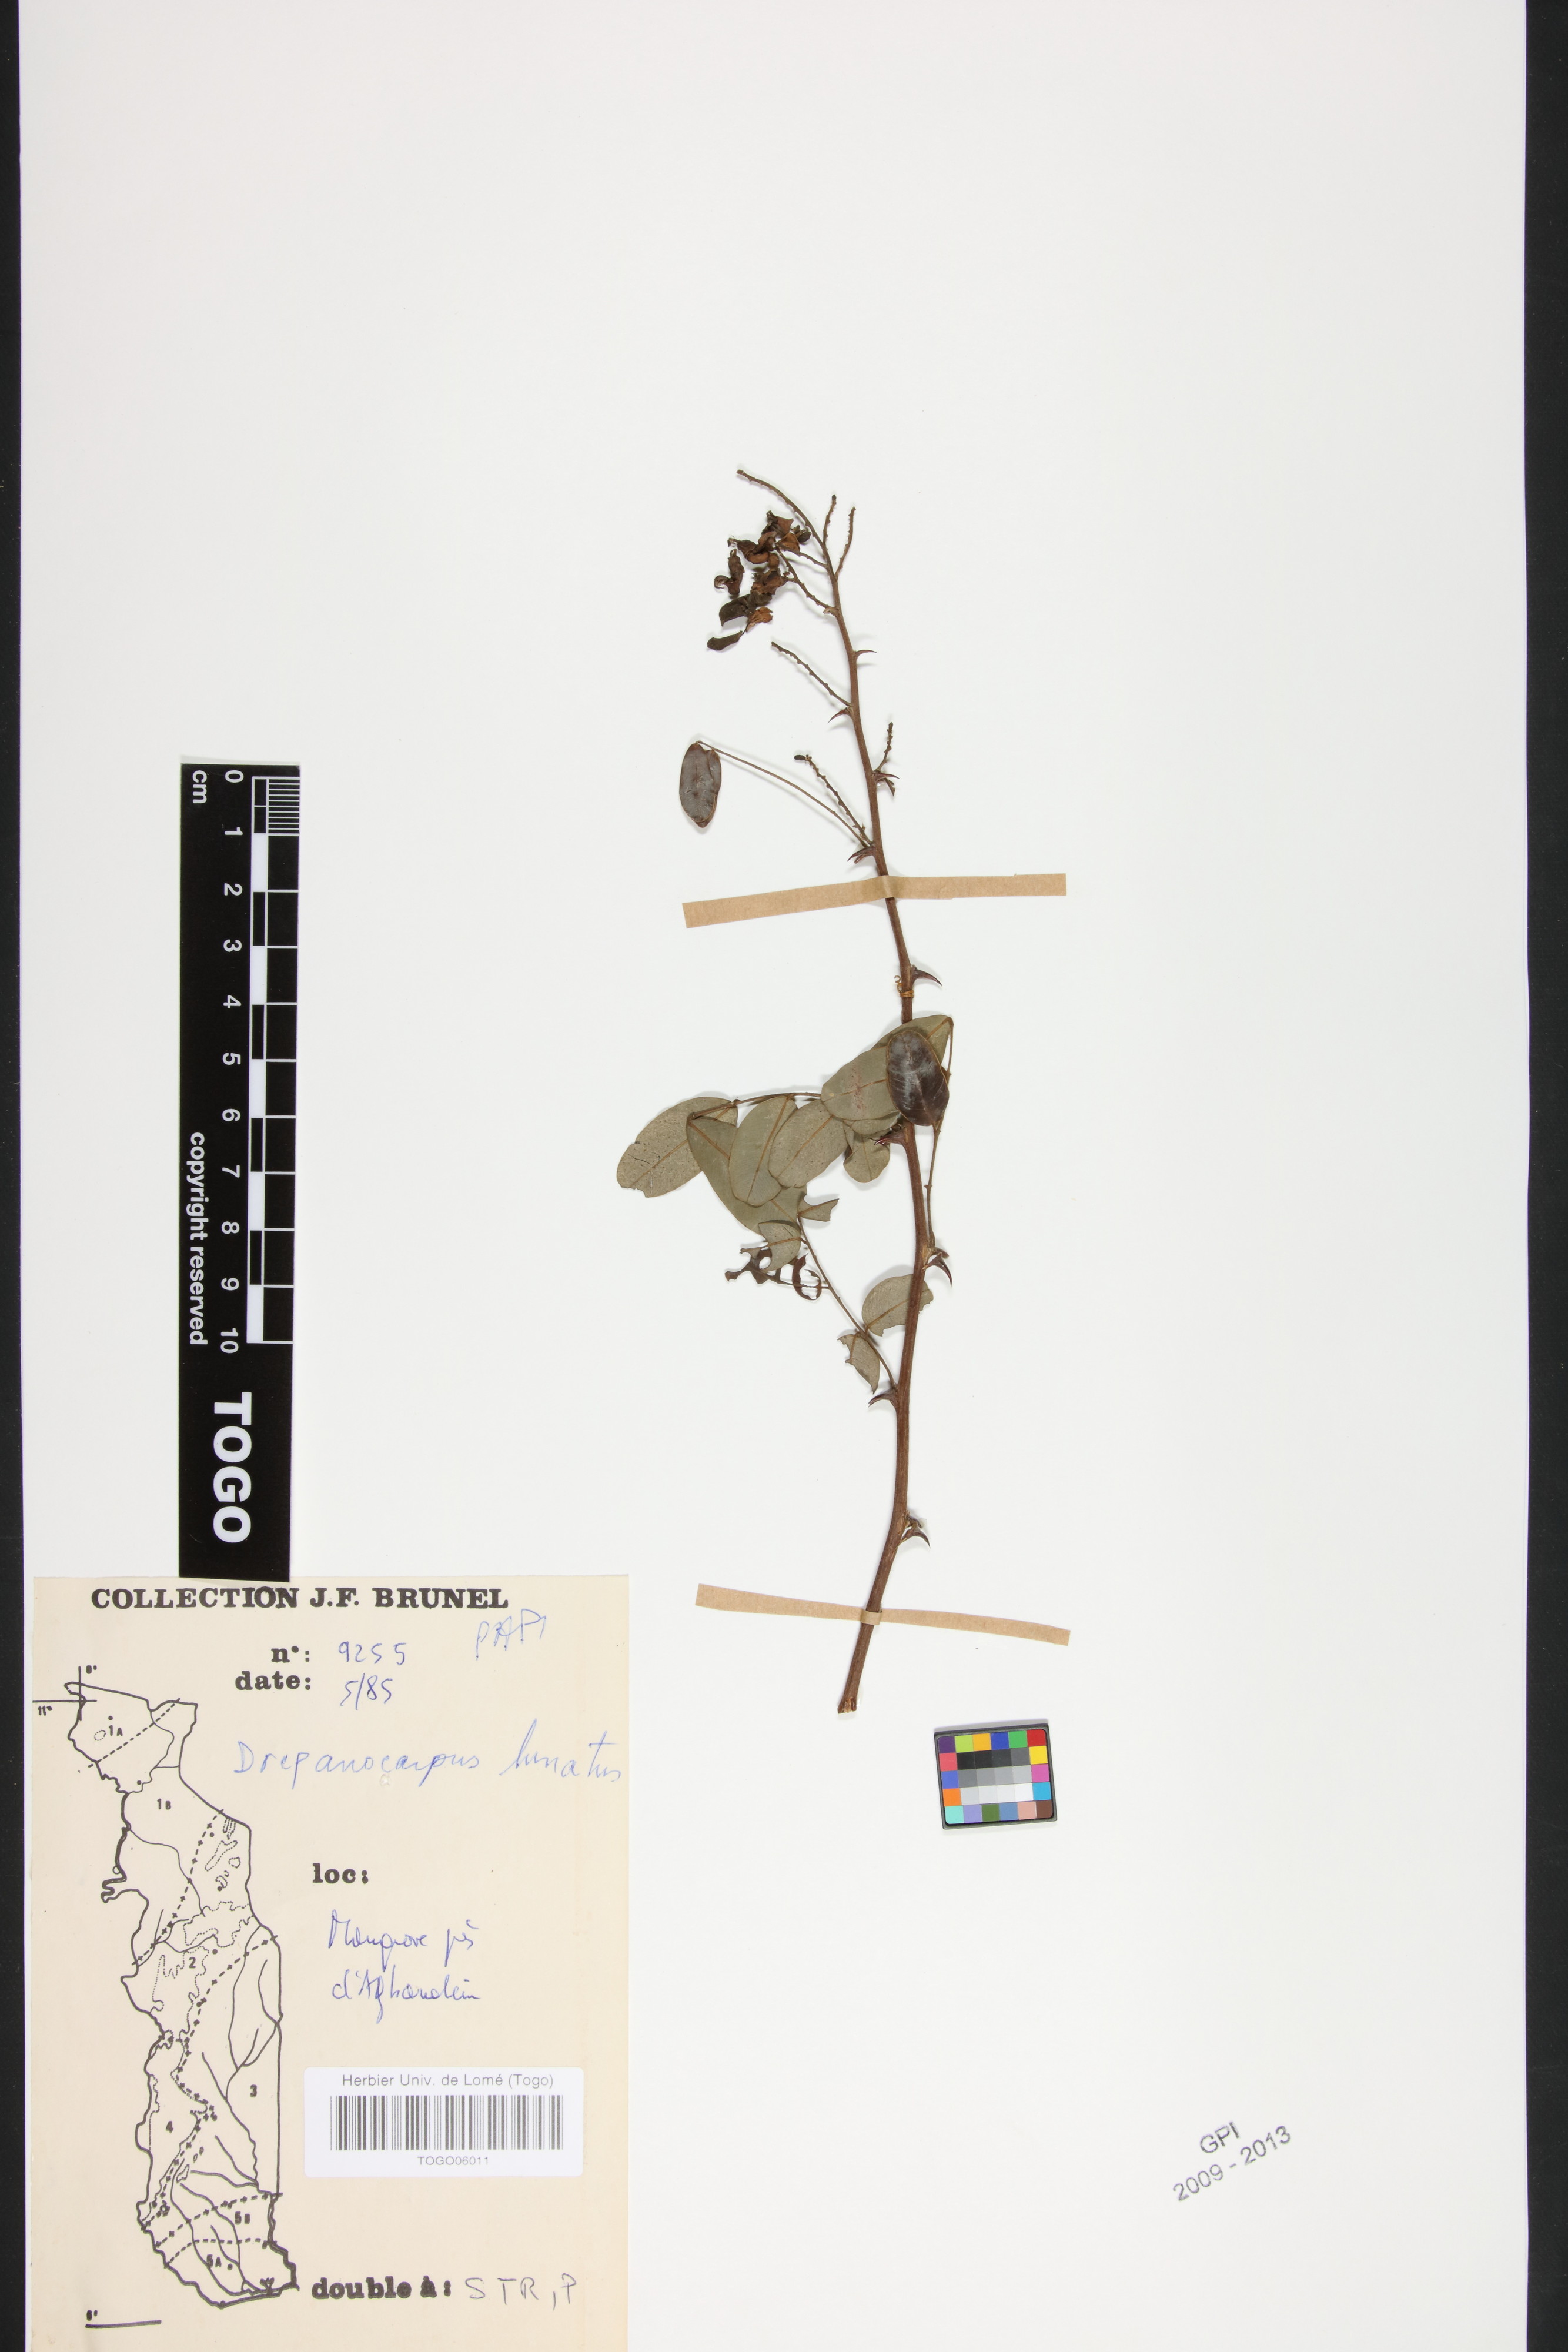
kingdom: Plantae
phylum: Tracheophyta
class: Magnoliopsida
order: Fabales
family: Fabaceae
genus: Machaerium
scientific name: Machaerium lunatum
